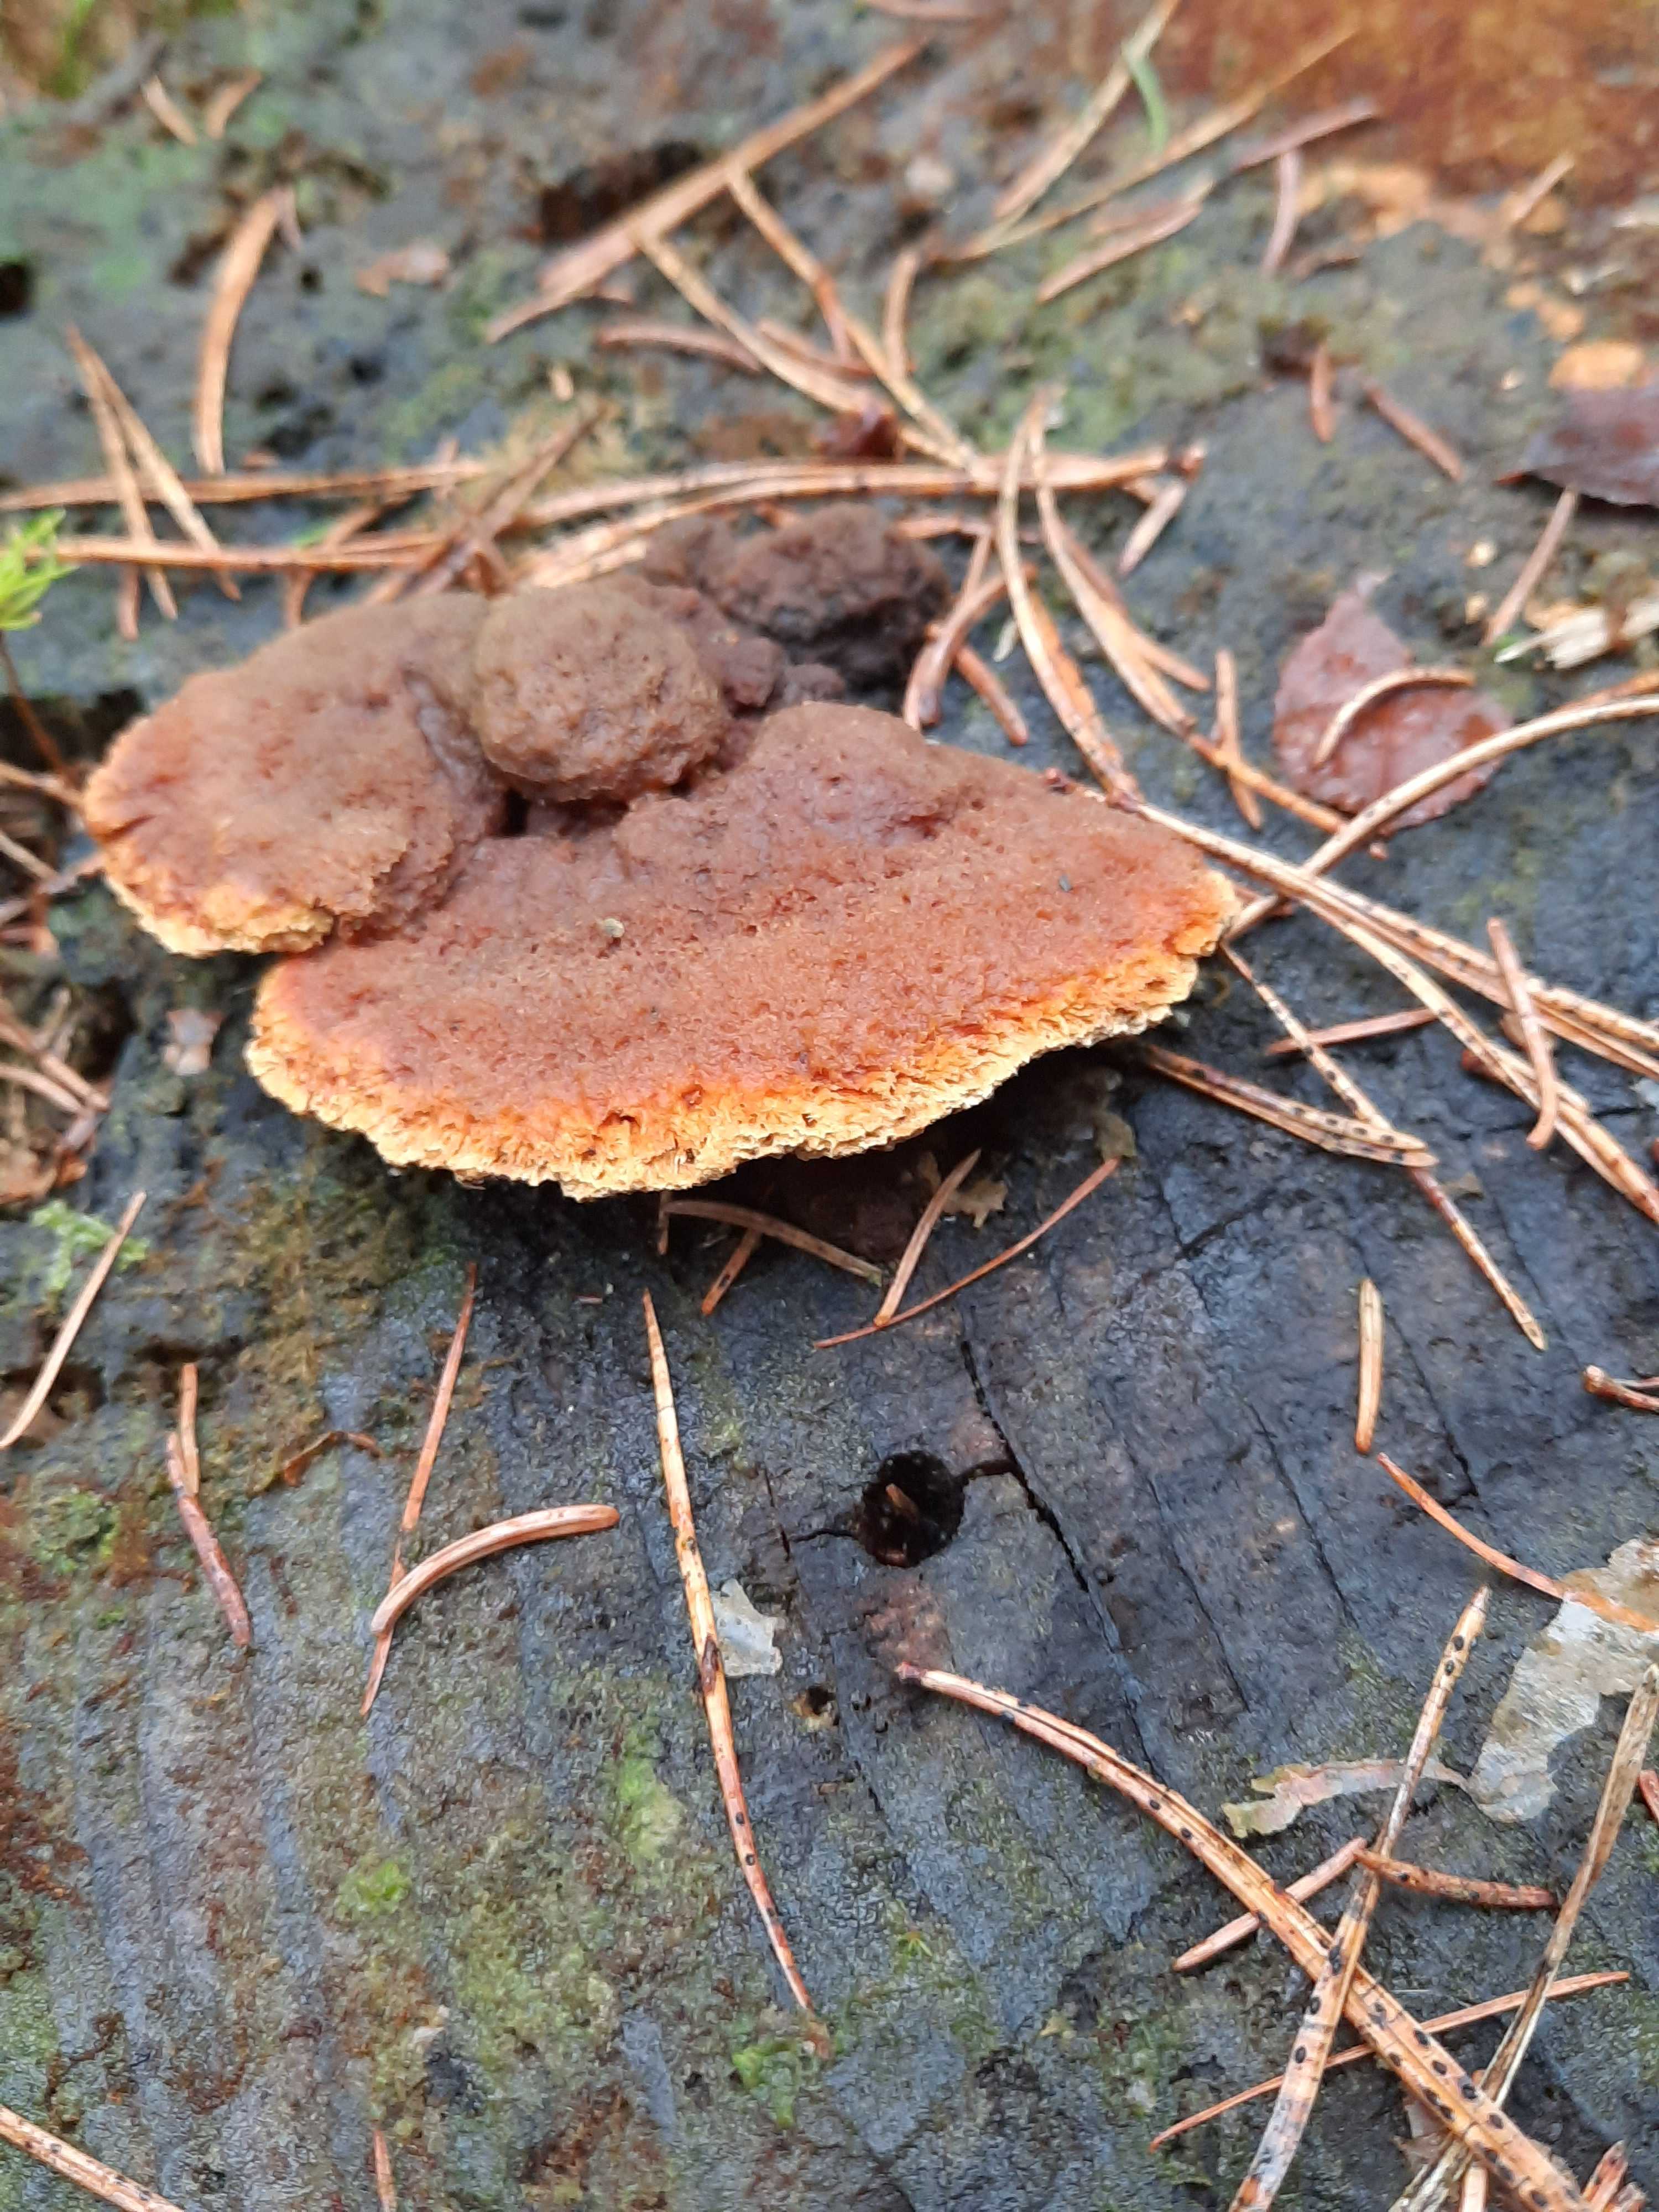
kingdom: Fungi
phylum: Basidiomycota
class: Agaricomycetes
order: Gloeophyllales
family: Gloeophyllaceae
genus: Gloeophyllum
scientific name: Gloeophyllum odoratum
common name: duftende korkhat
